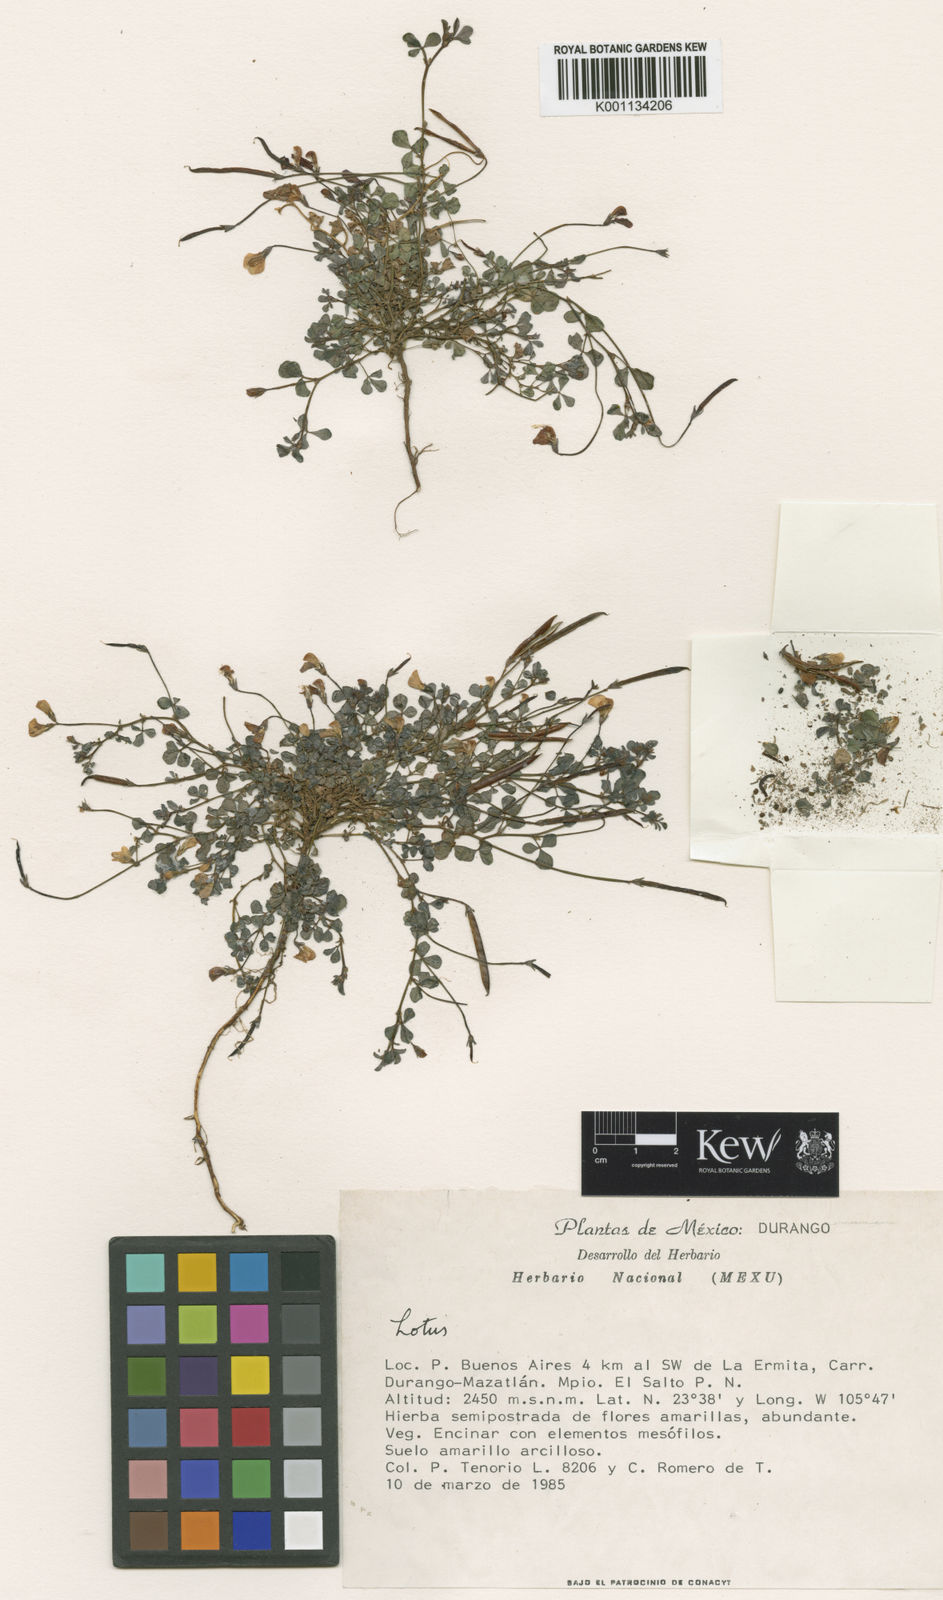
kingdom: Plantae
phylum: Tracheophyta
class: Magnoliopsida
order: Fabales
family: Fabaceae
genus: Acmispon
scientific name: Acmispon watsonii
